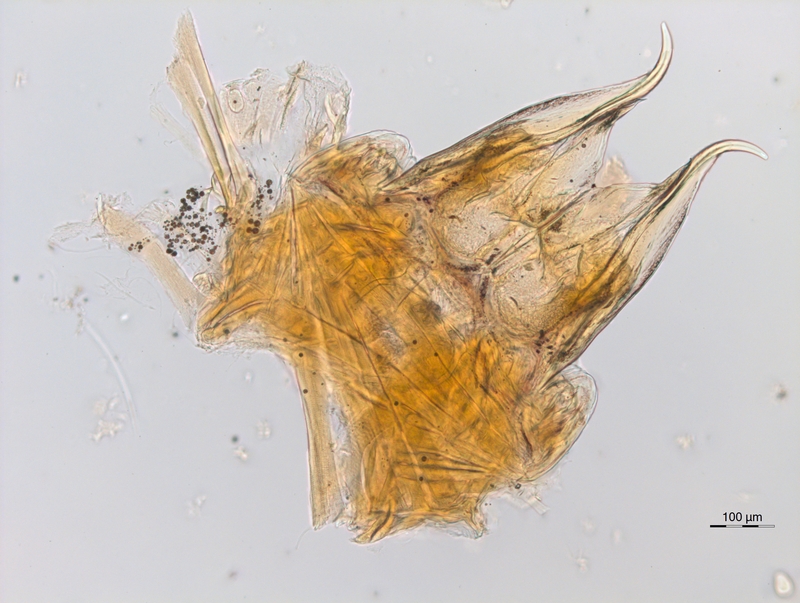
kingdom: Animalia
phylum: Arthropoda
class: Diplopoda
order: Chordeumatida
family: Anthroleucosomatidae
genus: Anamastigona
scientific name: Anamastigona hispidula
